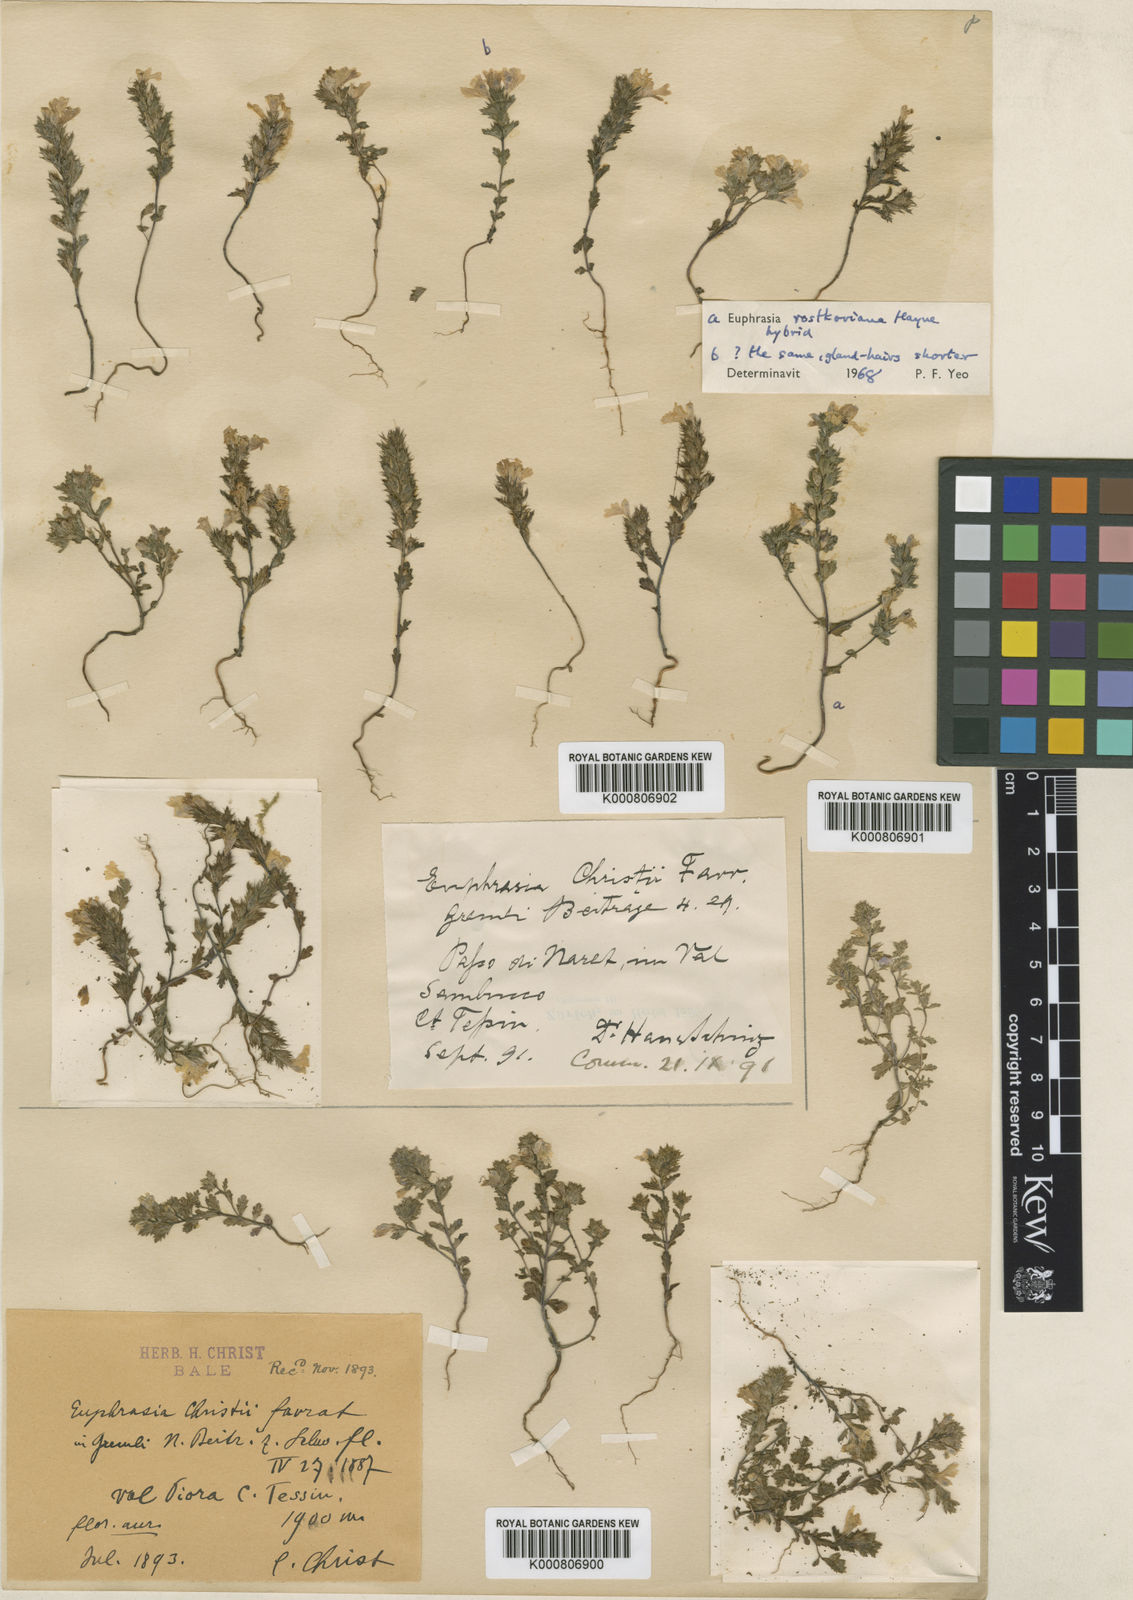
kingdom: Plantae
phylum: Tracheophyta
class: Magnoliopsida
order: Lamiales
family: Orobanchaceae
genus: Euphrasia
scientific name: Euphrasia christii
